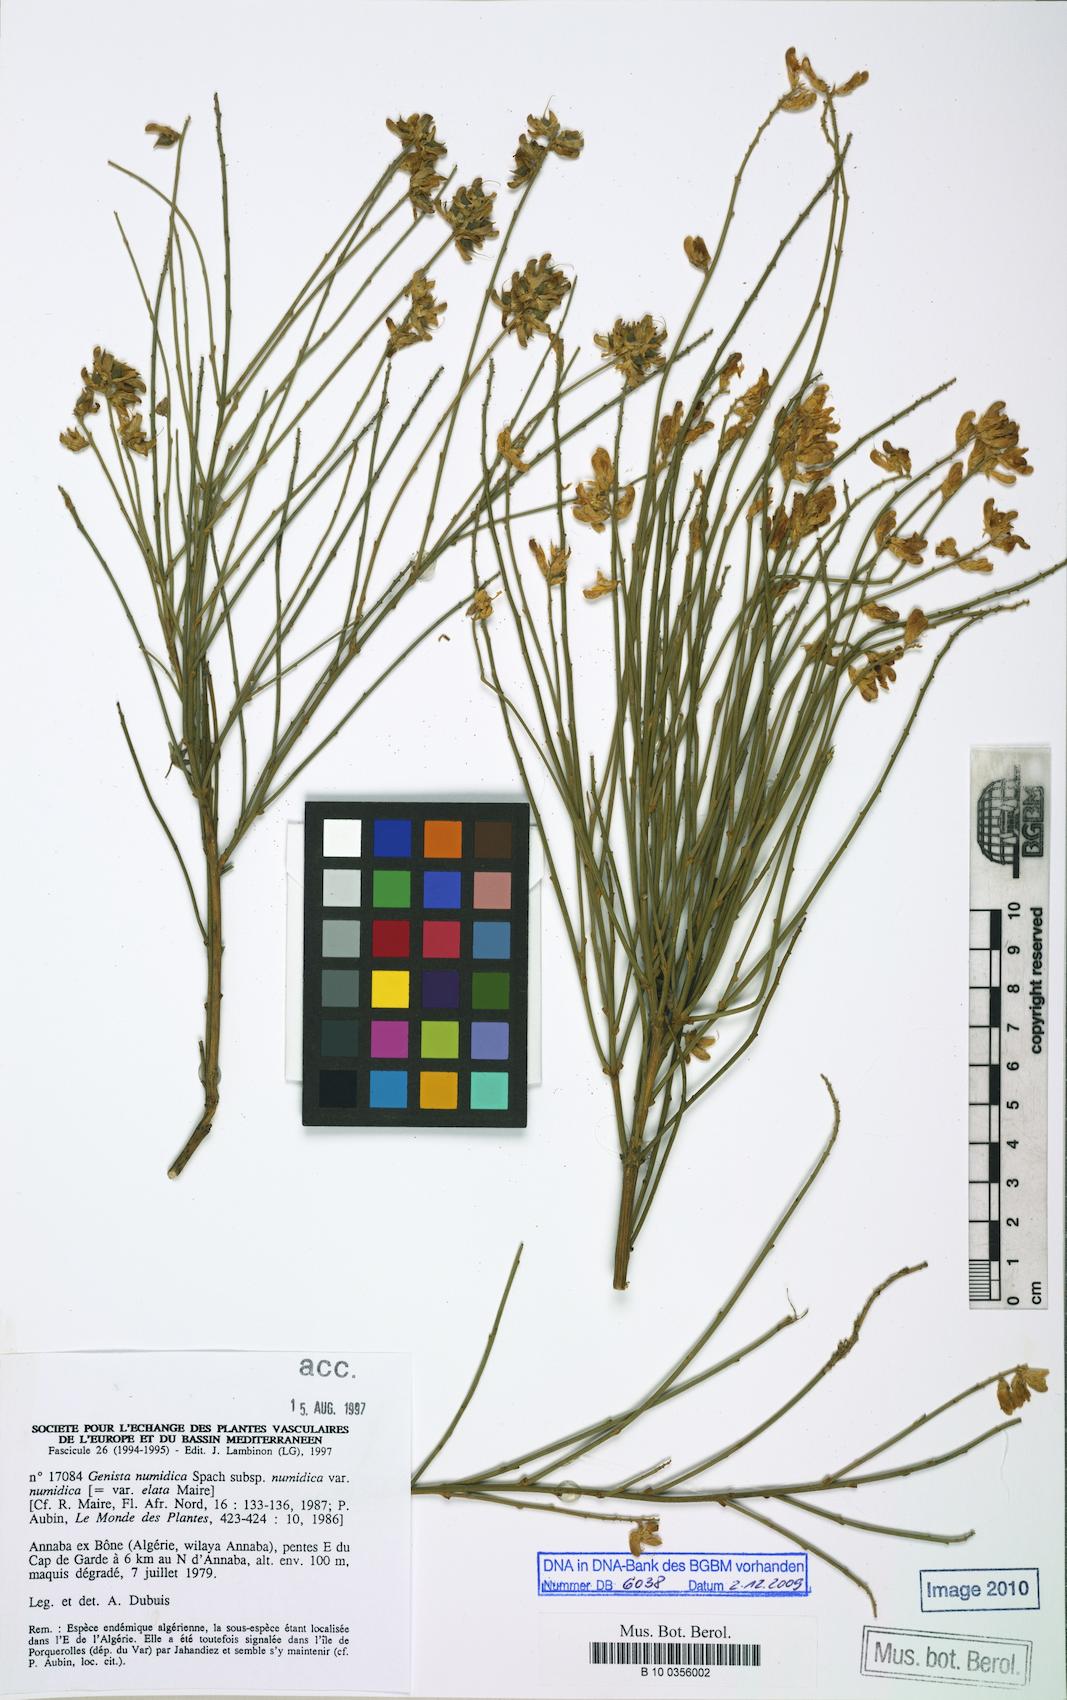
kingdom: Plantae
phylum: Tracheophyta
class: Magnoliopsida
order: Fabales
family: Fabaceae
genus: Genista
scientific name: Genista numidica
